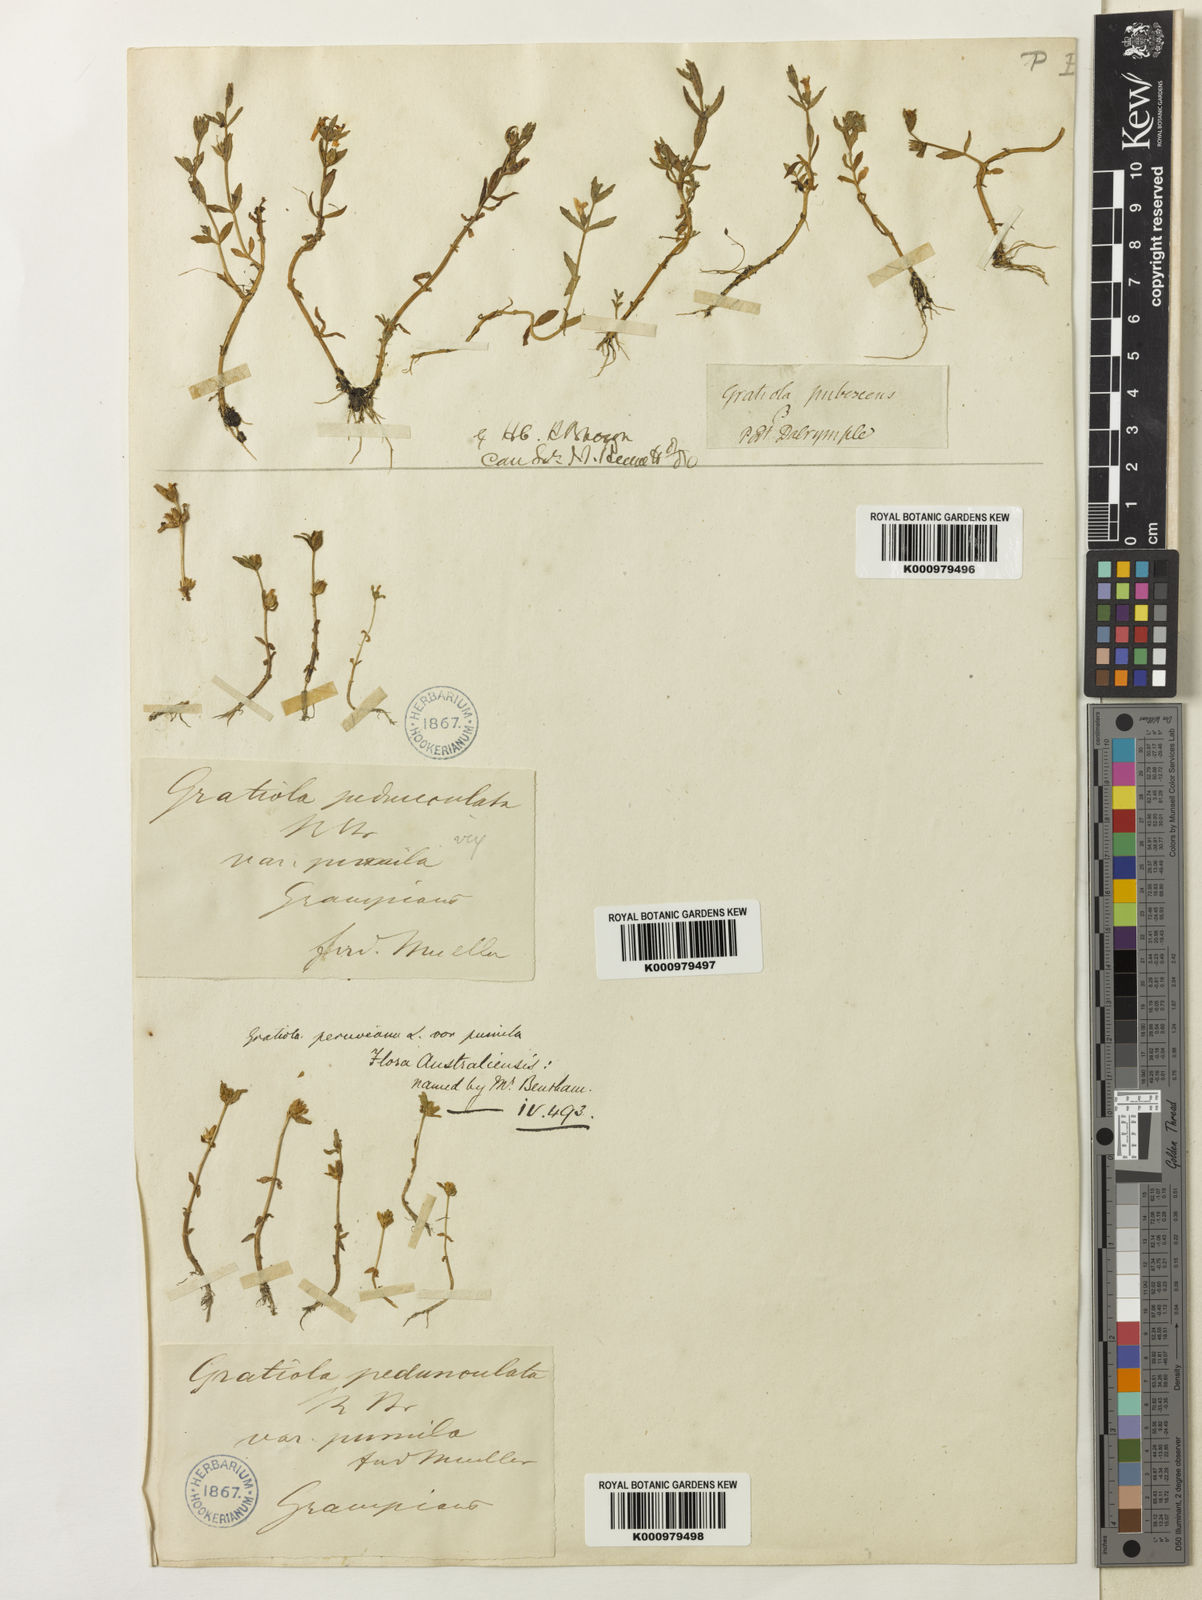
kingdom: Plantae
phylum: Tracheophyta
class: Magnoliopsida
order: Lamiales
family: Plantaginaceae
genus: Gratiola
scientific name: Gratiola pumilo
